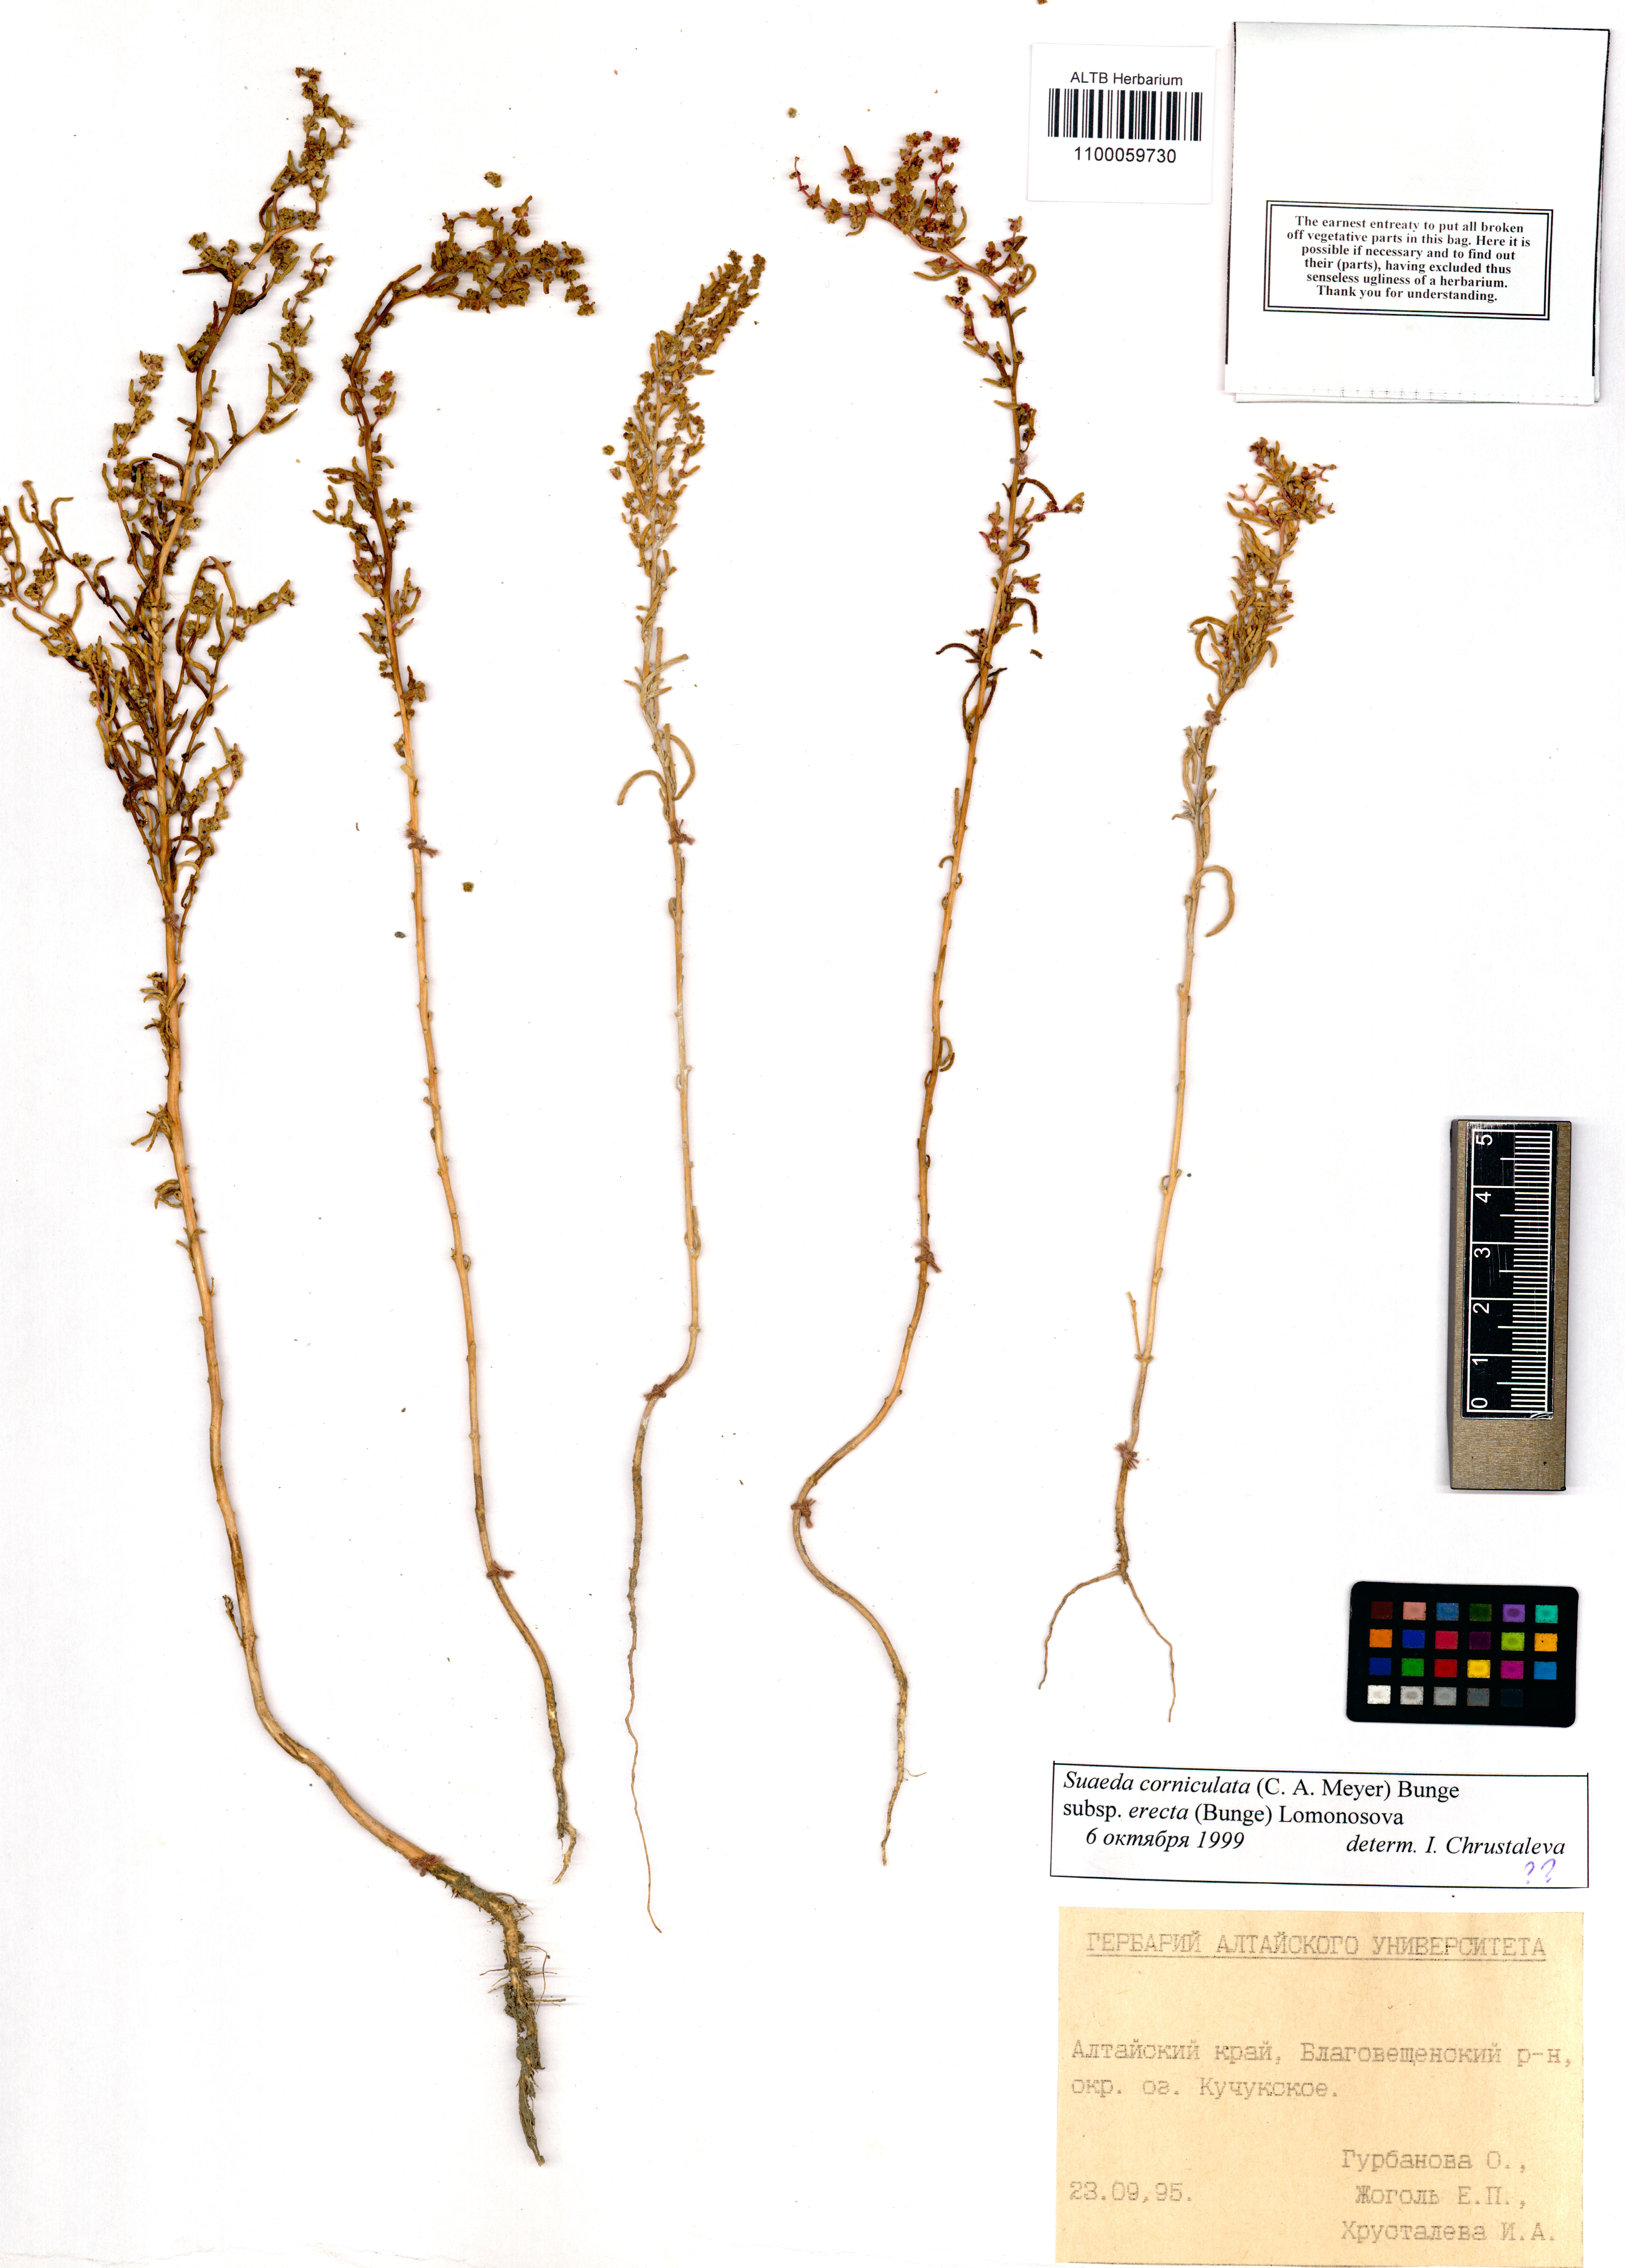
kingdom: Plantae
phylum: Tracheophyta
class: Magnoliopsida
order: Caryophyllales
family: Amaranthaceae
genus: Suaeda
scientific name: Suaeda corniculata
